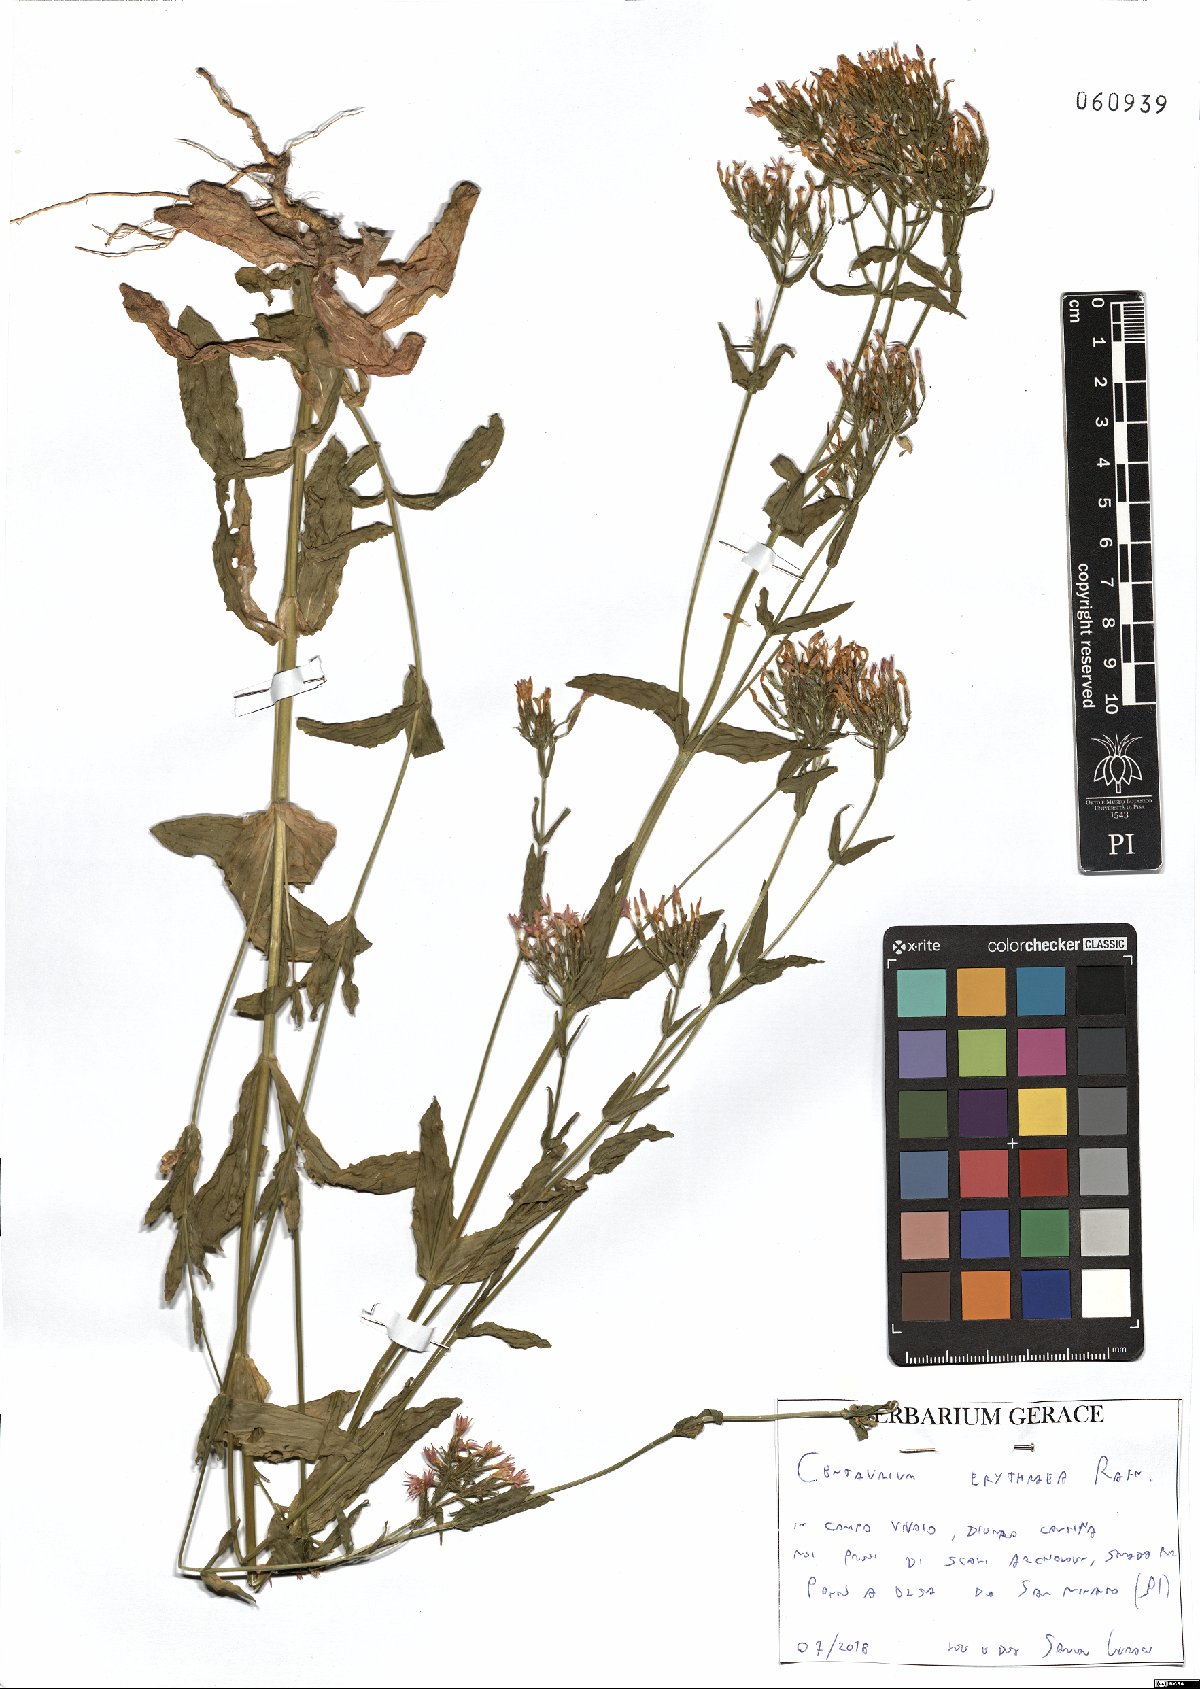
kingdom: Plantae
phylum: Tracheophyta
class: Magnoliopsida
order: Gentianales
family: Gentianaceae
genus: Centaurium
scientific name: Centaurium erythraea
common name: Common centaury
